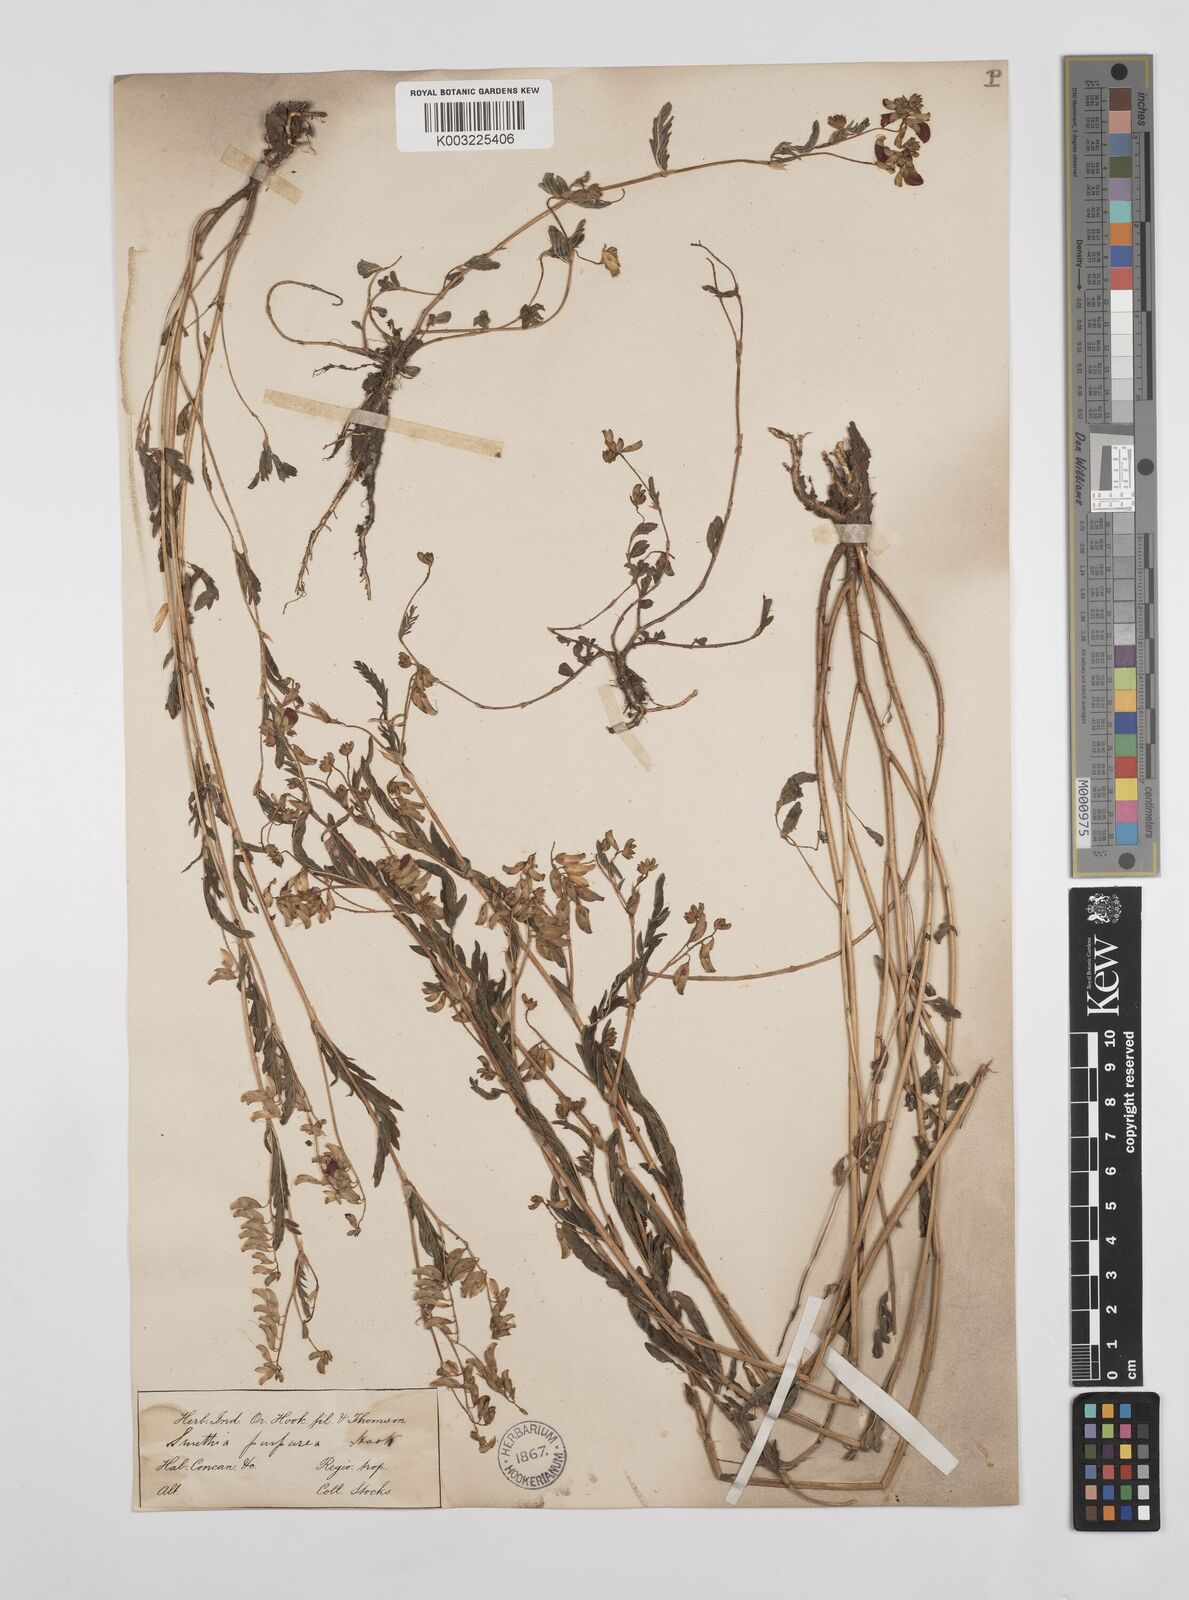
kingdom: Plantae
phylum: Tracheophyta
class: Magnoliopsida
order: Fabales
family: Fabaceae
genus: Smithia
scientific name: Smithia purpurea
